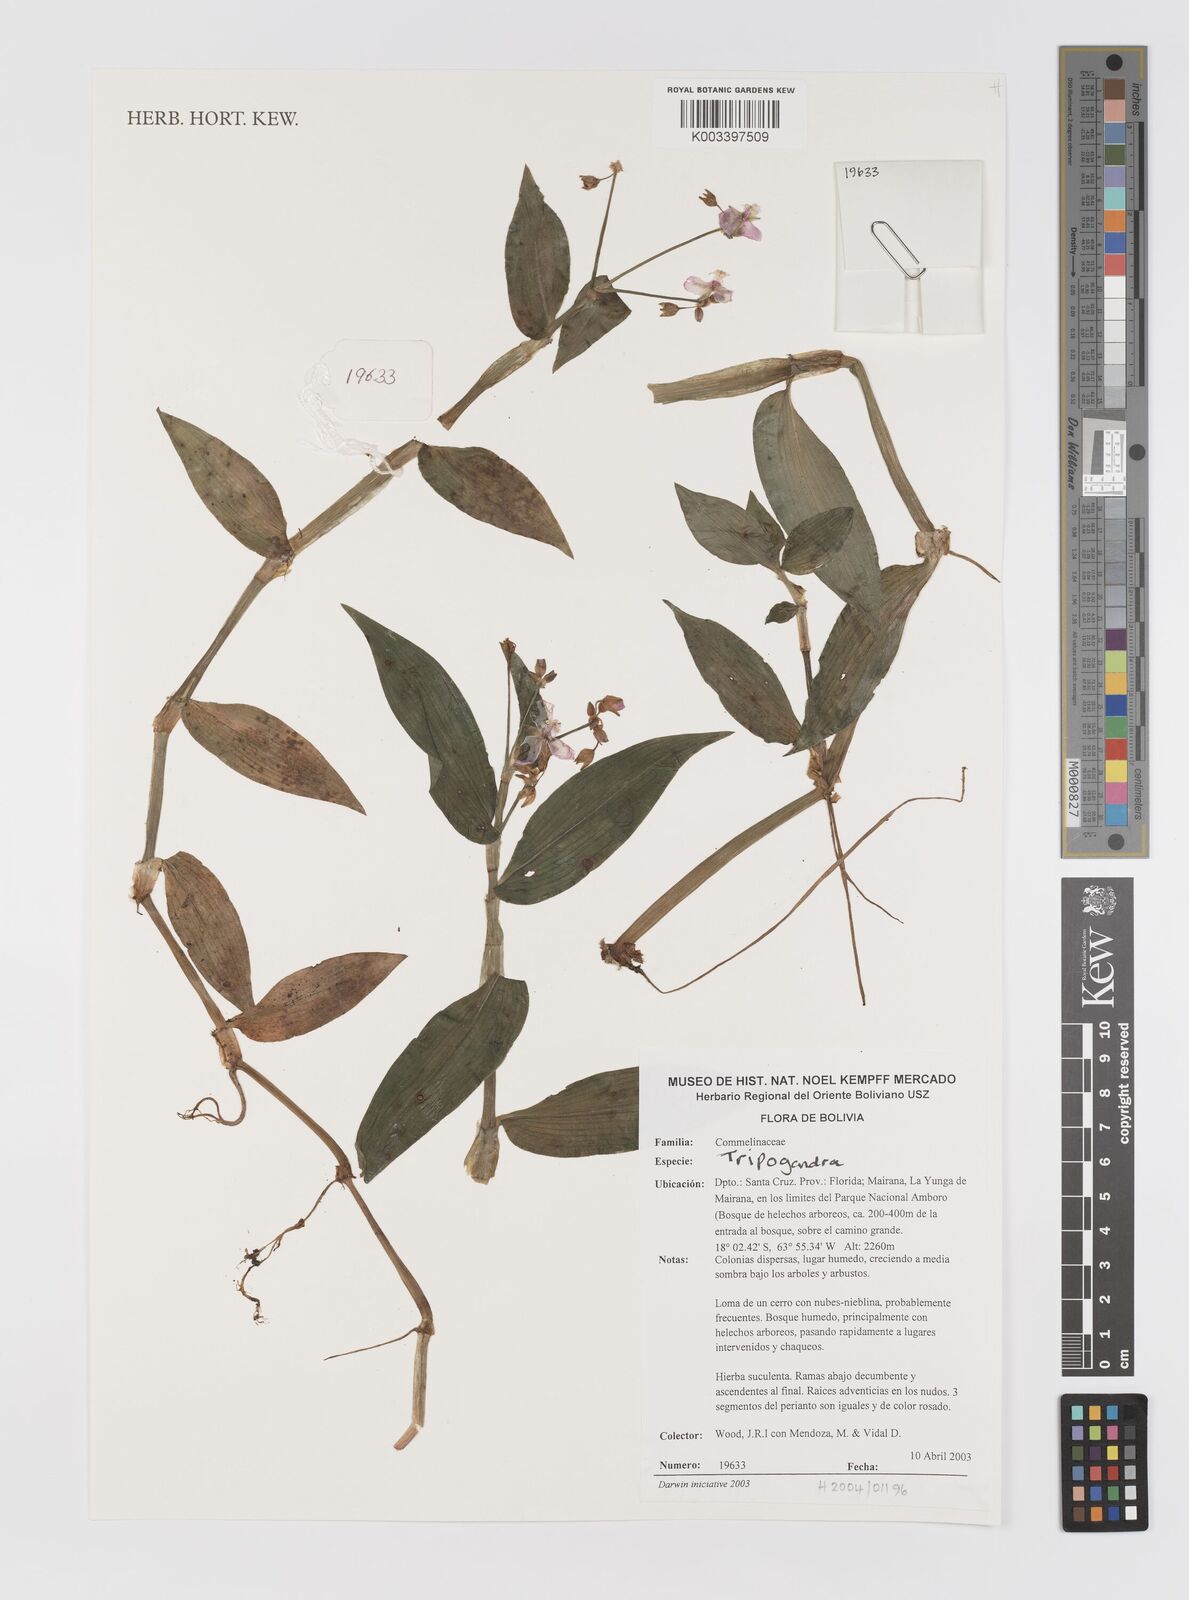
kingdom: Plantae
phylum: Tracheophyta
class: Liliopsida
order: Commelinales
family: Commelinaceae
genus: Callisia
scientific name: Callisia
